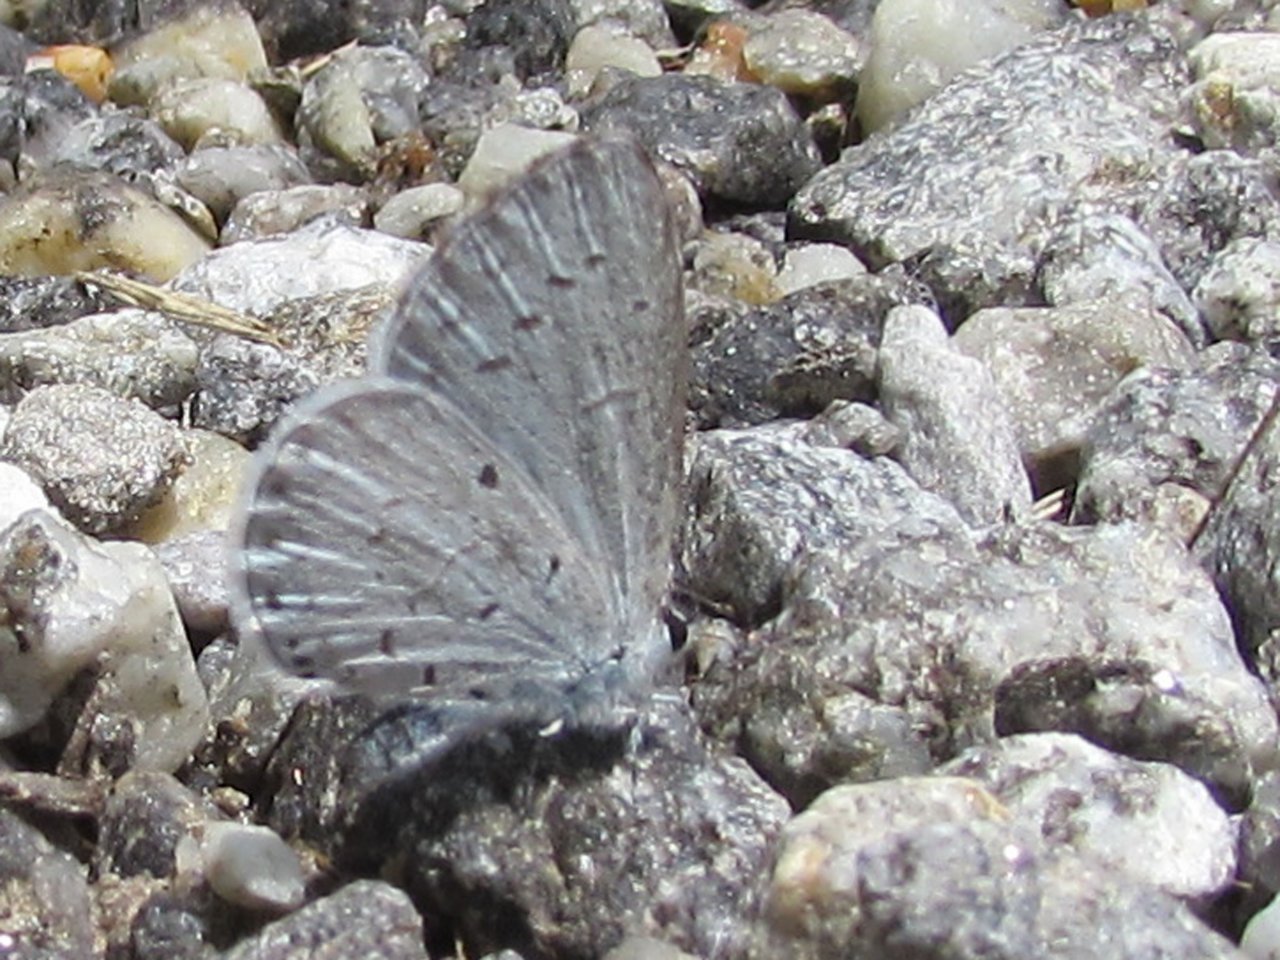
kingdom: Animalia
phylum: Arthropoda
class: Insecta
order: Lepidoptera
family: Lycaenidae
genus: Cyaniris
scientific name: Cyaniris neglecta
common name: Summer Azure
